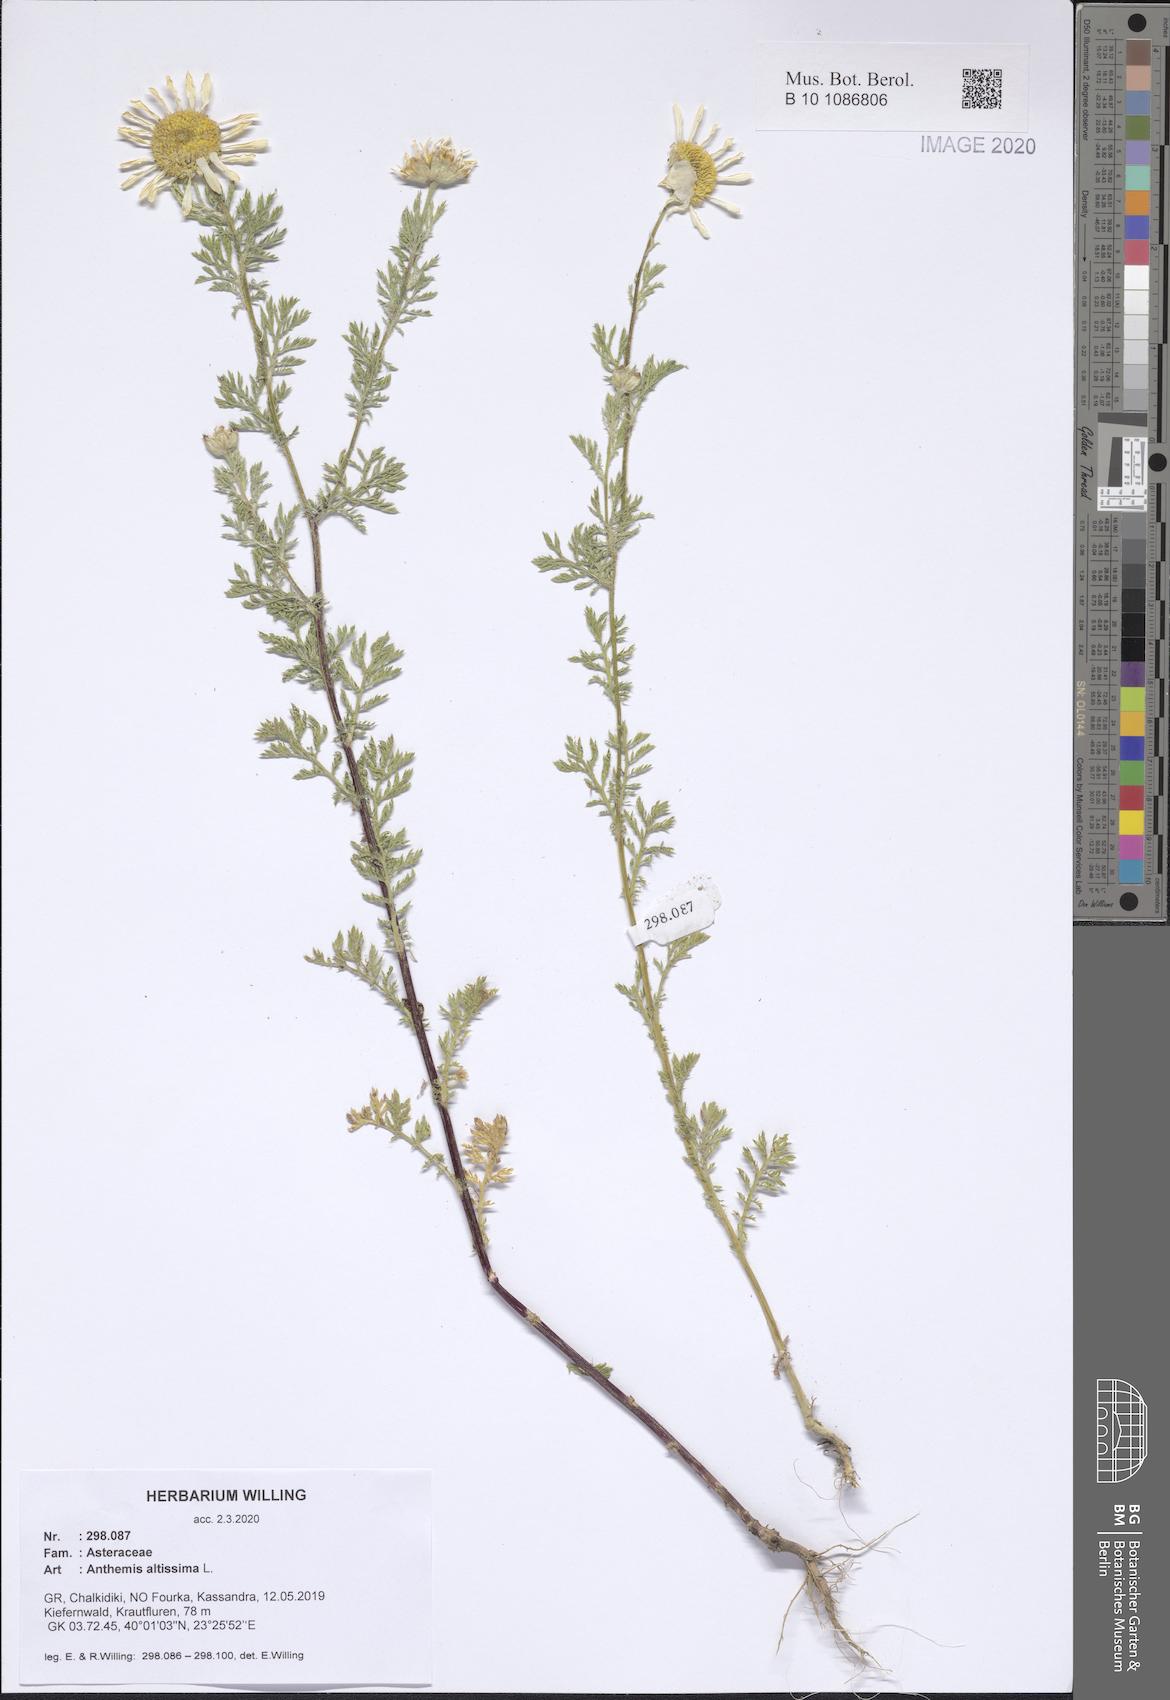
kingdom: Plantae
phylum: Tracheophyta
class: Magnoliopsida
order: Asterales
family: Asteraceae
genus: Cota
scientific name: Cota altissima
